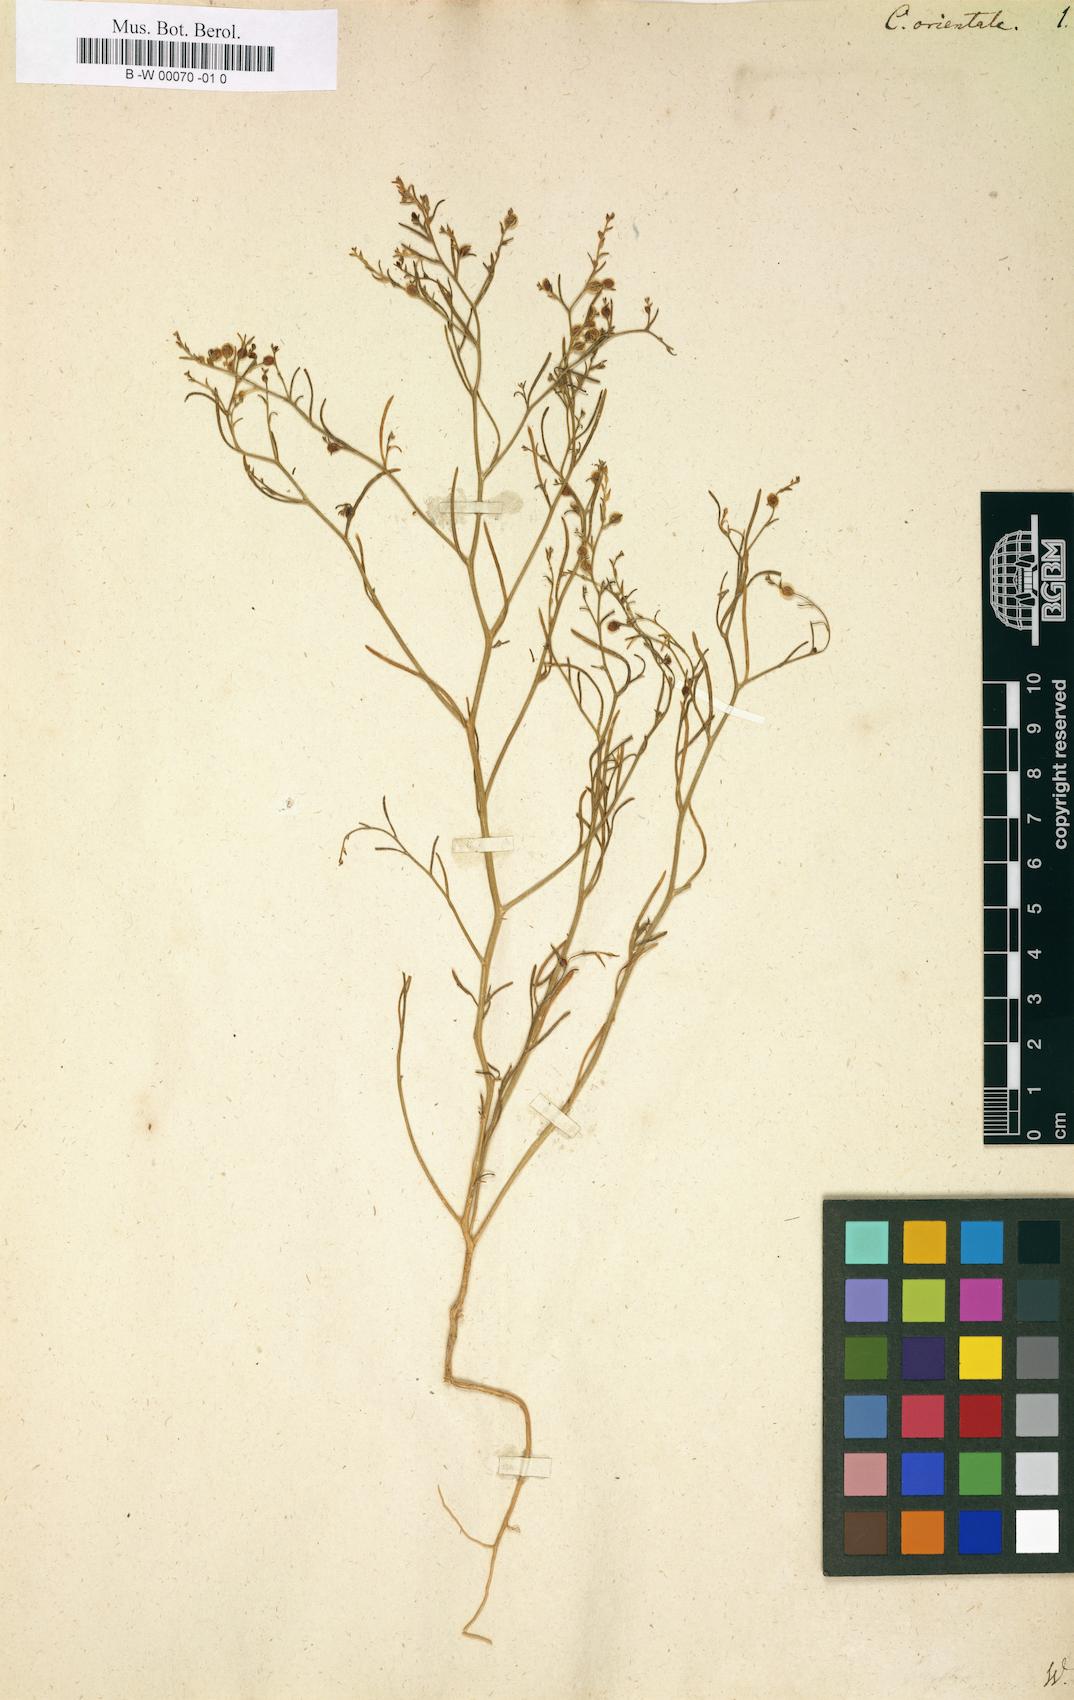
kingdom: Plantae
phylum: Tracheophyta
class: Magnoliopsida
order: Caryophyllales
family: Amaranthaceae
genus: Corispermum
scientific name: Corispermum aralocaspicum
